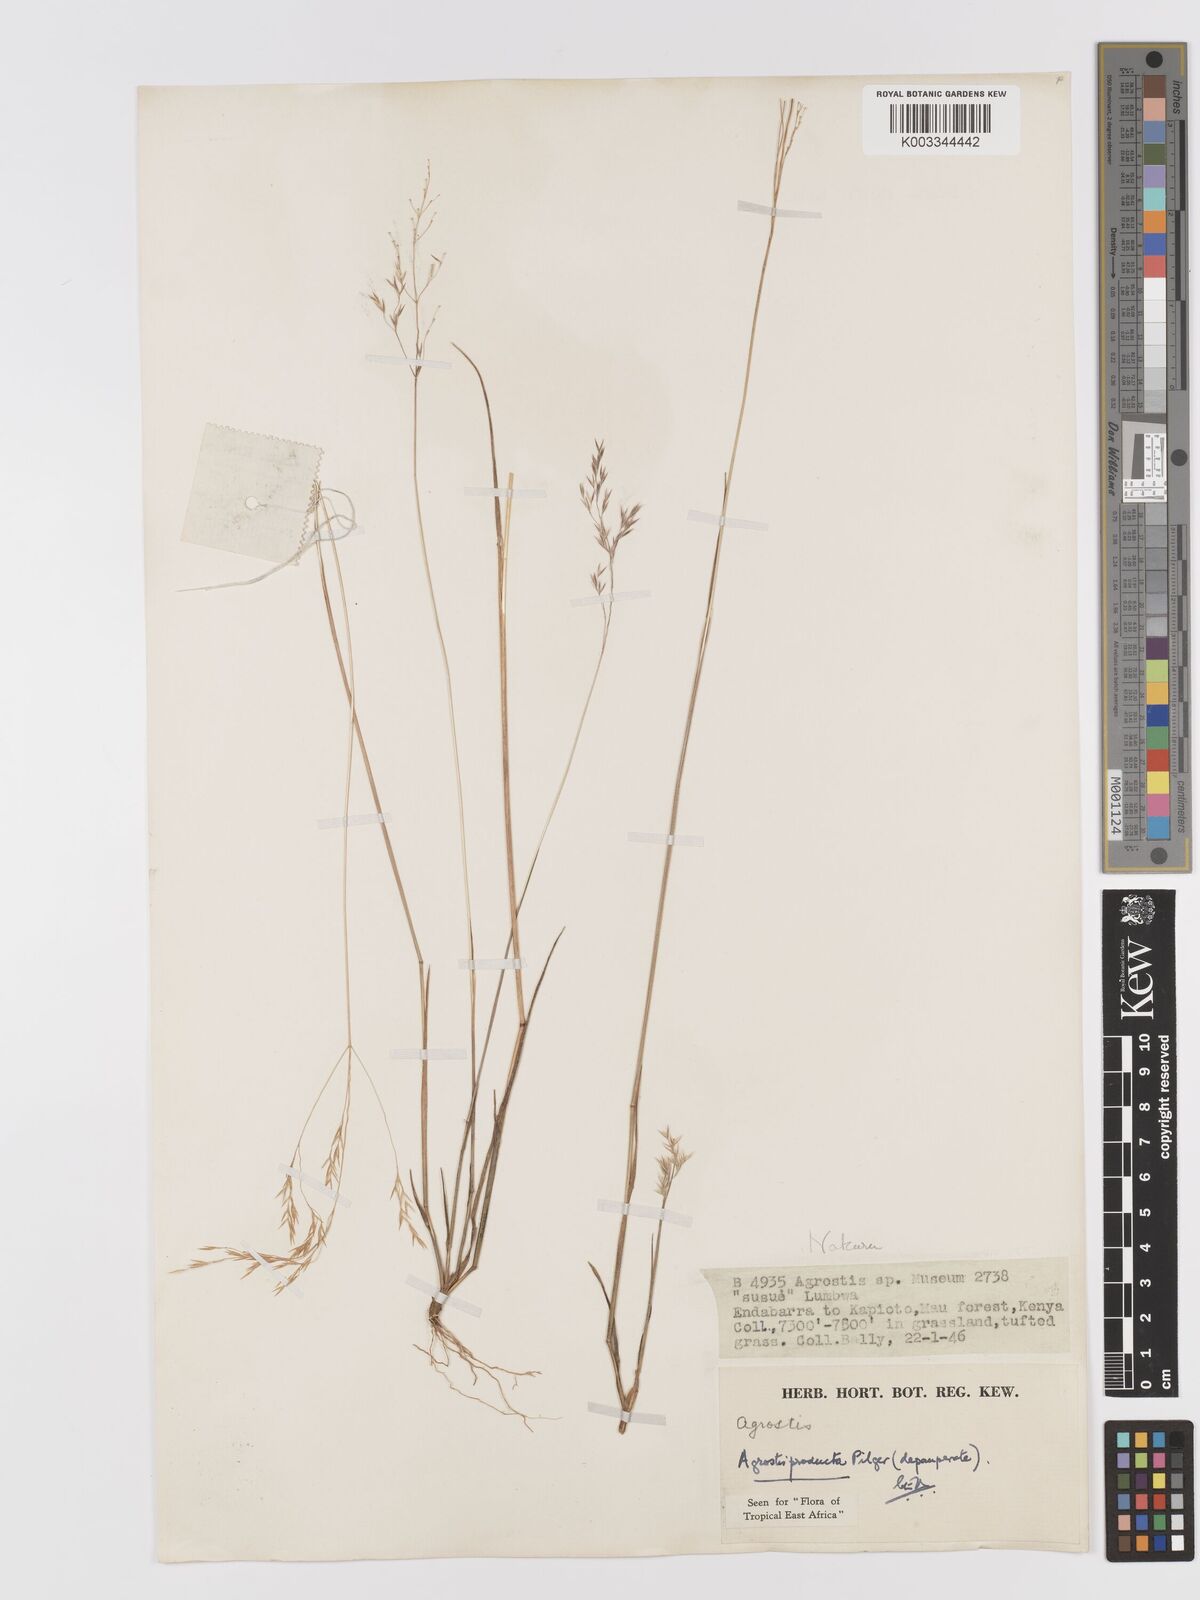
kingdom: Plantae
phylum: Tracheophyta
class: Liliopsida
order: Poales
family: Poaceae
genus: Agrostis
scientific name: Agrostis producta
